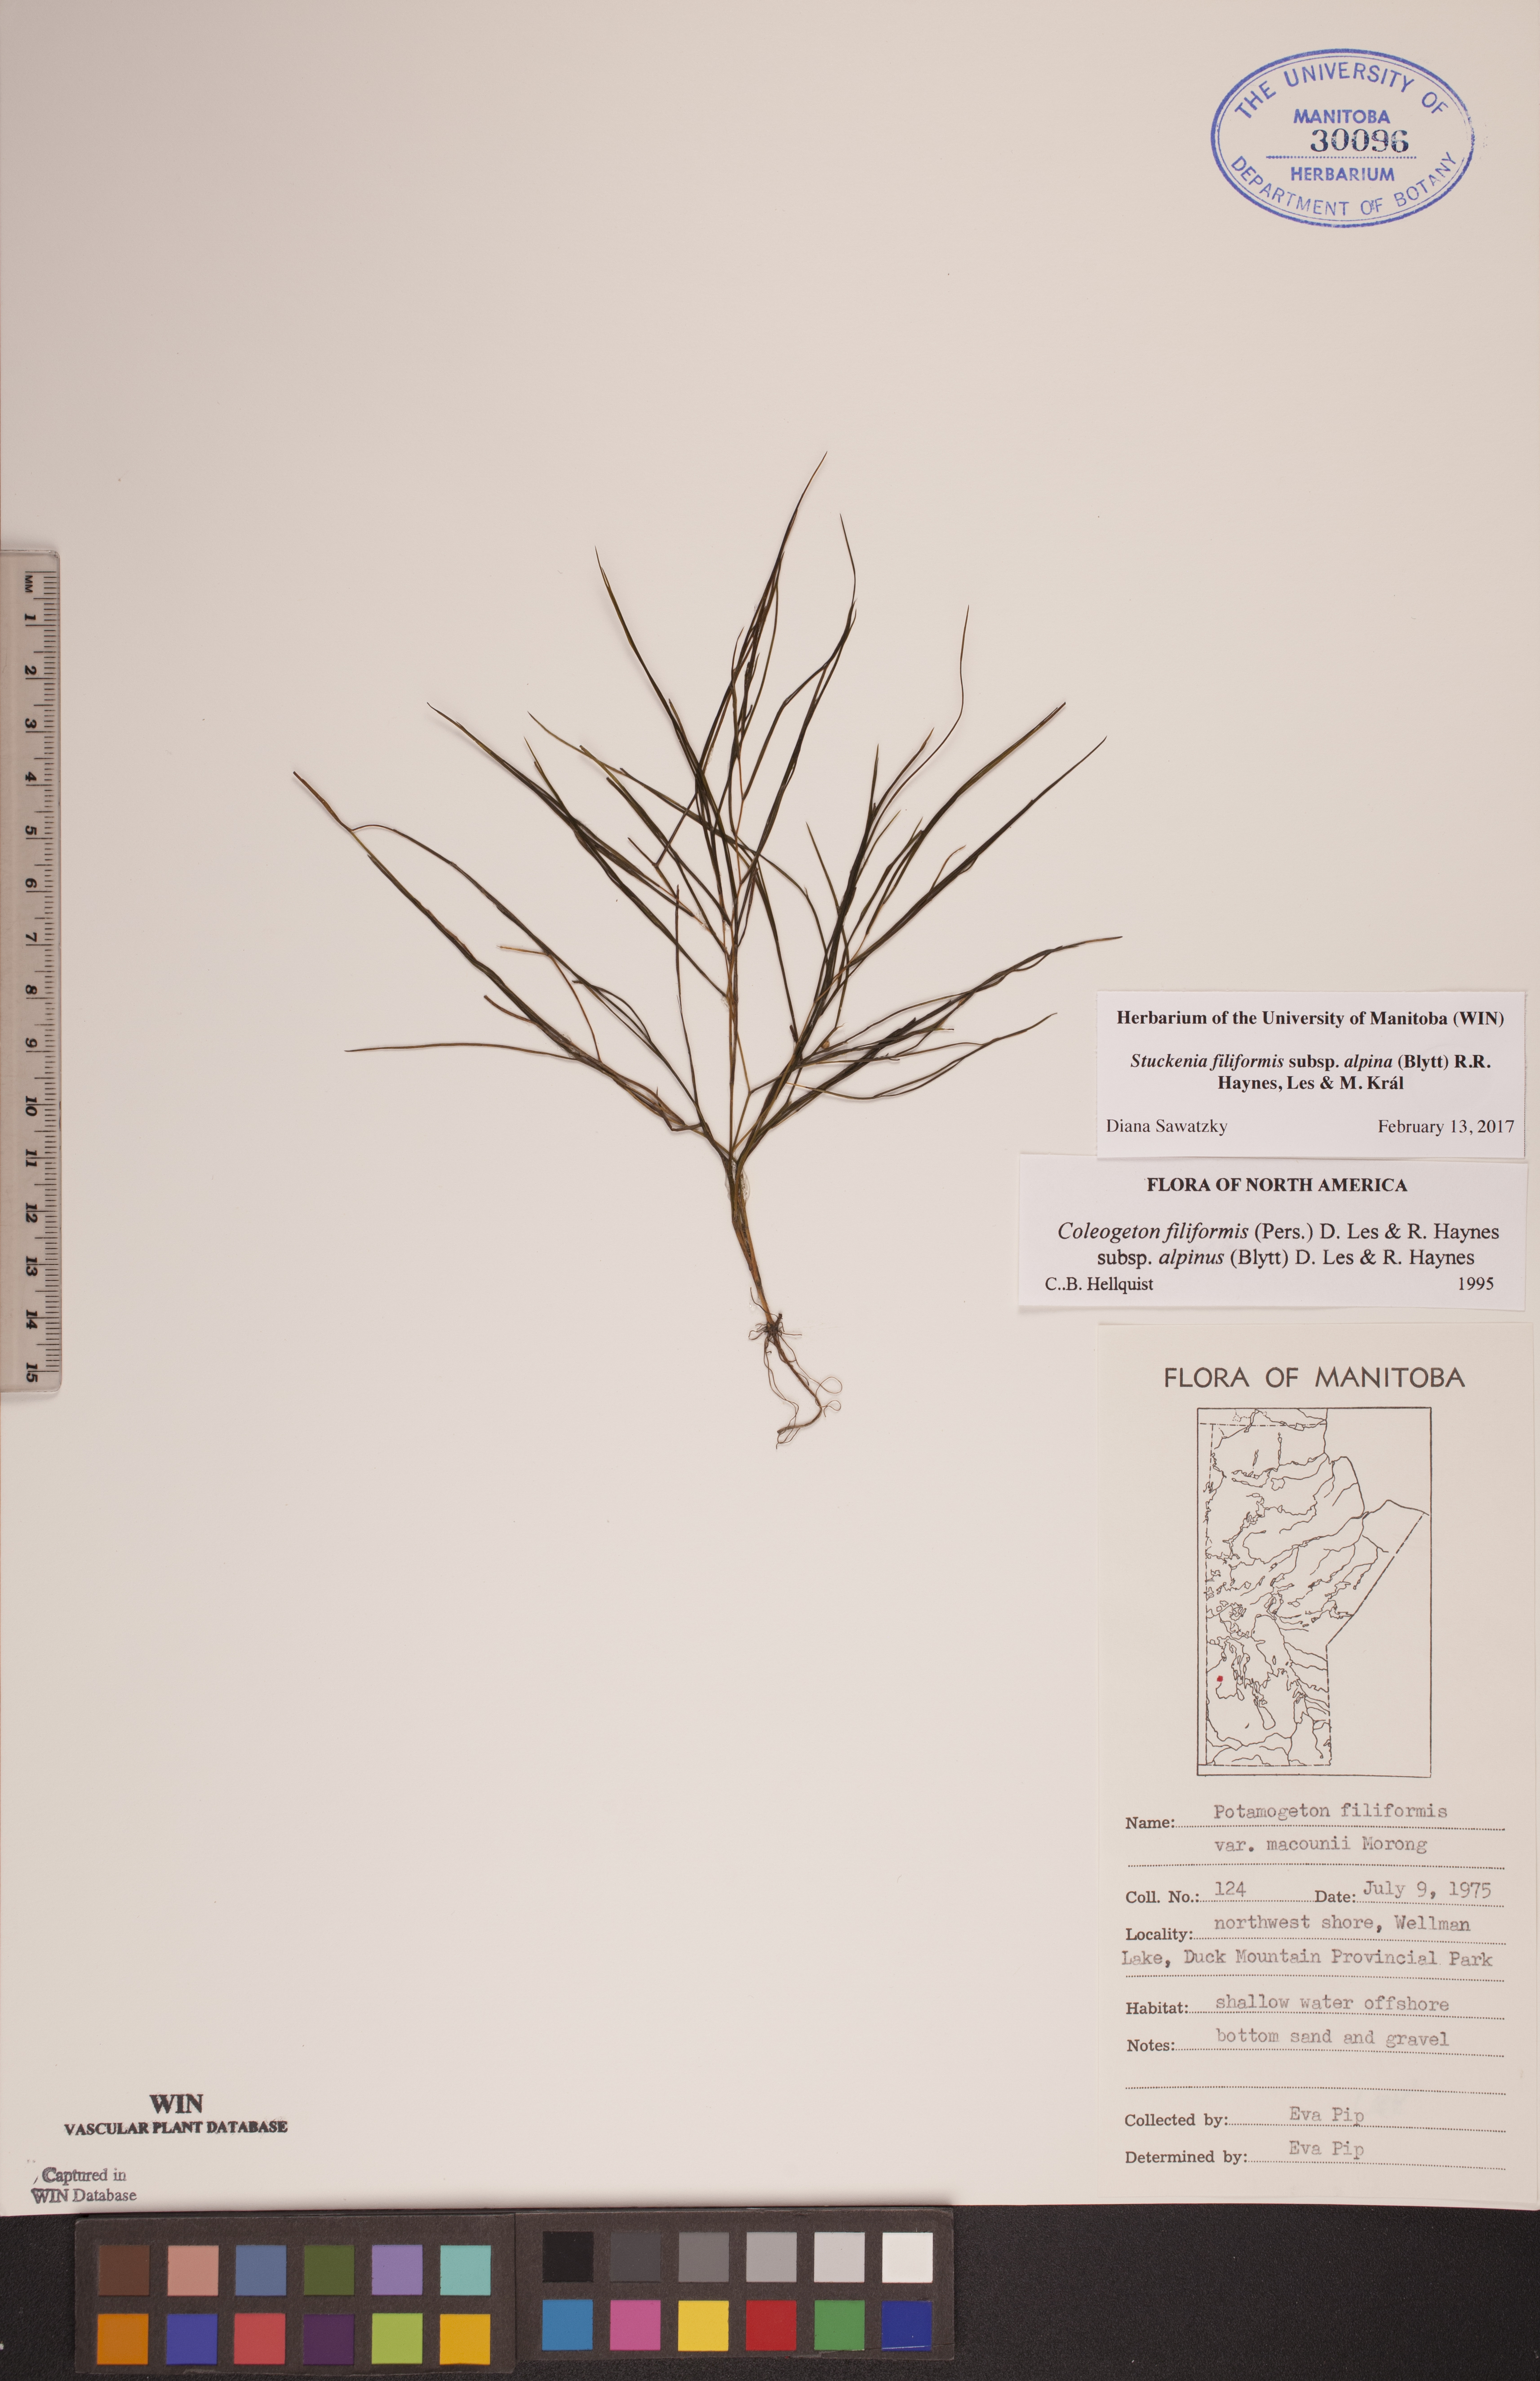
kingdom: Plantae
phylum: Tracheophyta
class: Liliopsida
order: Alismatales
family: Potamogetonaceae
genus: Stuckenia
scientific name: Stuckenia filiformis
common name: Alpine thread-leaved pondweed
